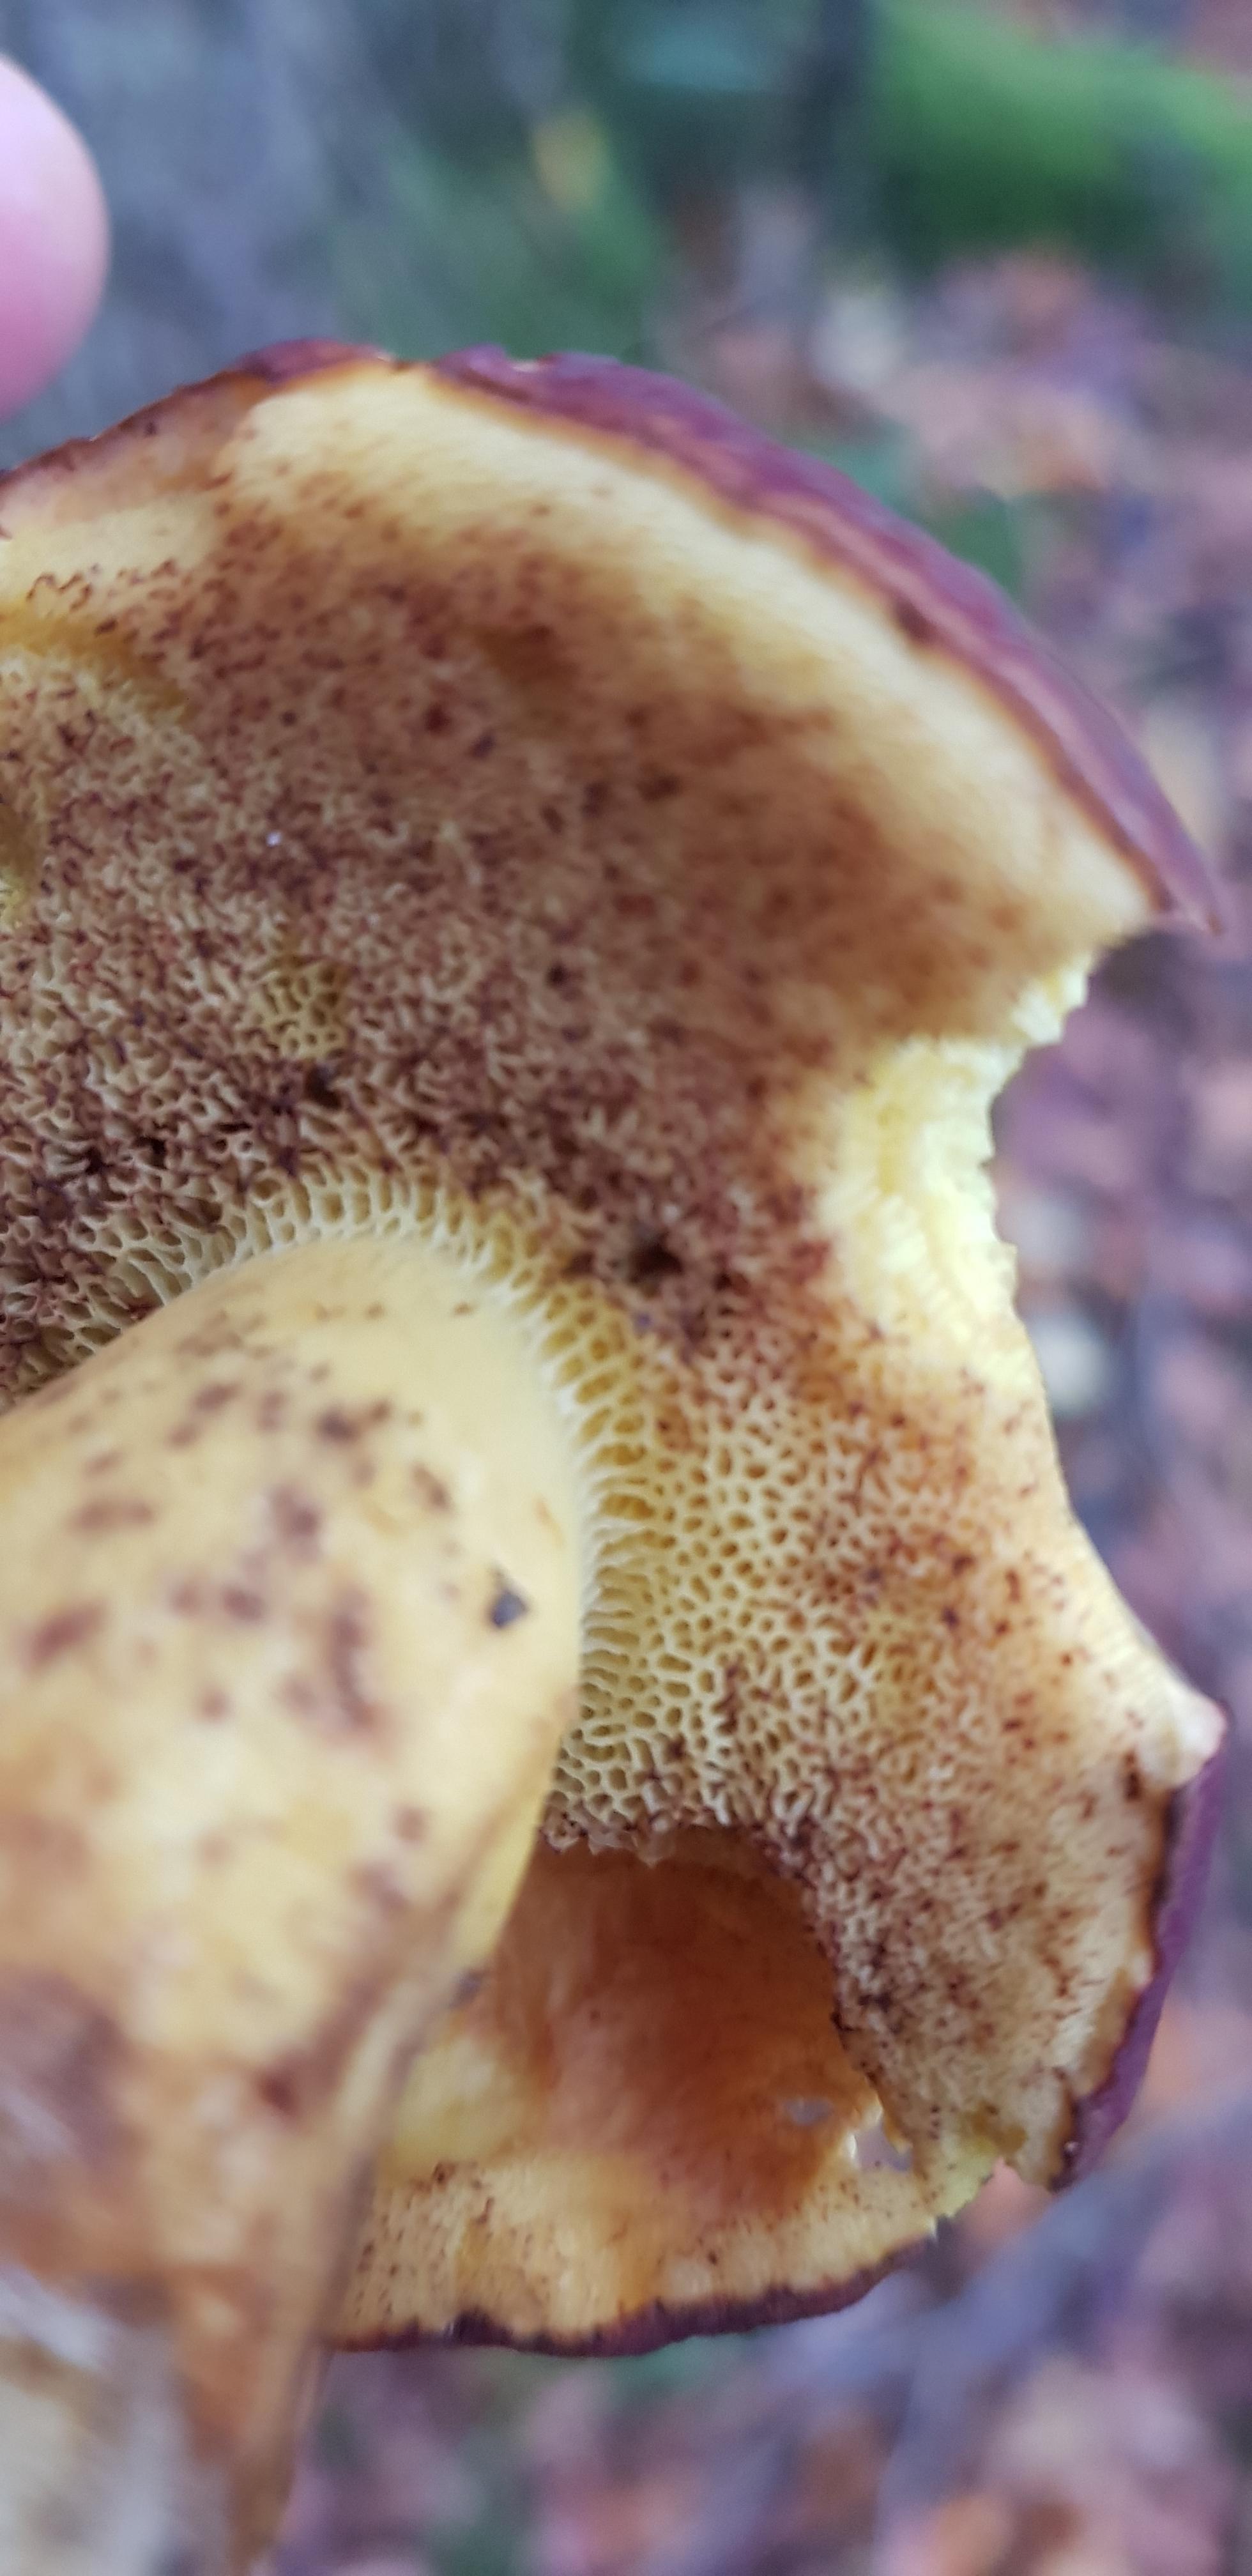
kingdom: Fungi
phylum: Basidiomycota
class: Agaricomycetes
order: Boletales
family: Boletaceae
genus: Xerocomellus
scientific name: Xerocomellus pruinatus
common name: dugget rørhat
